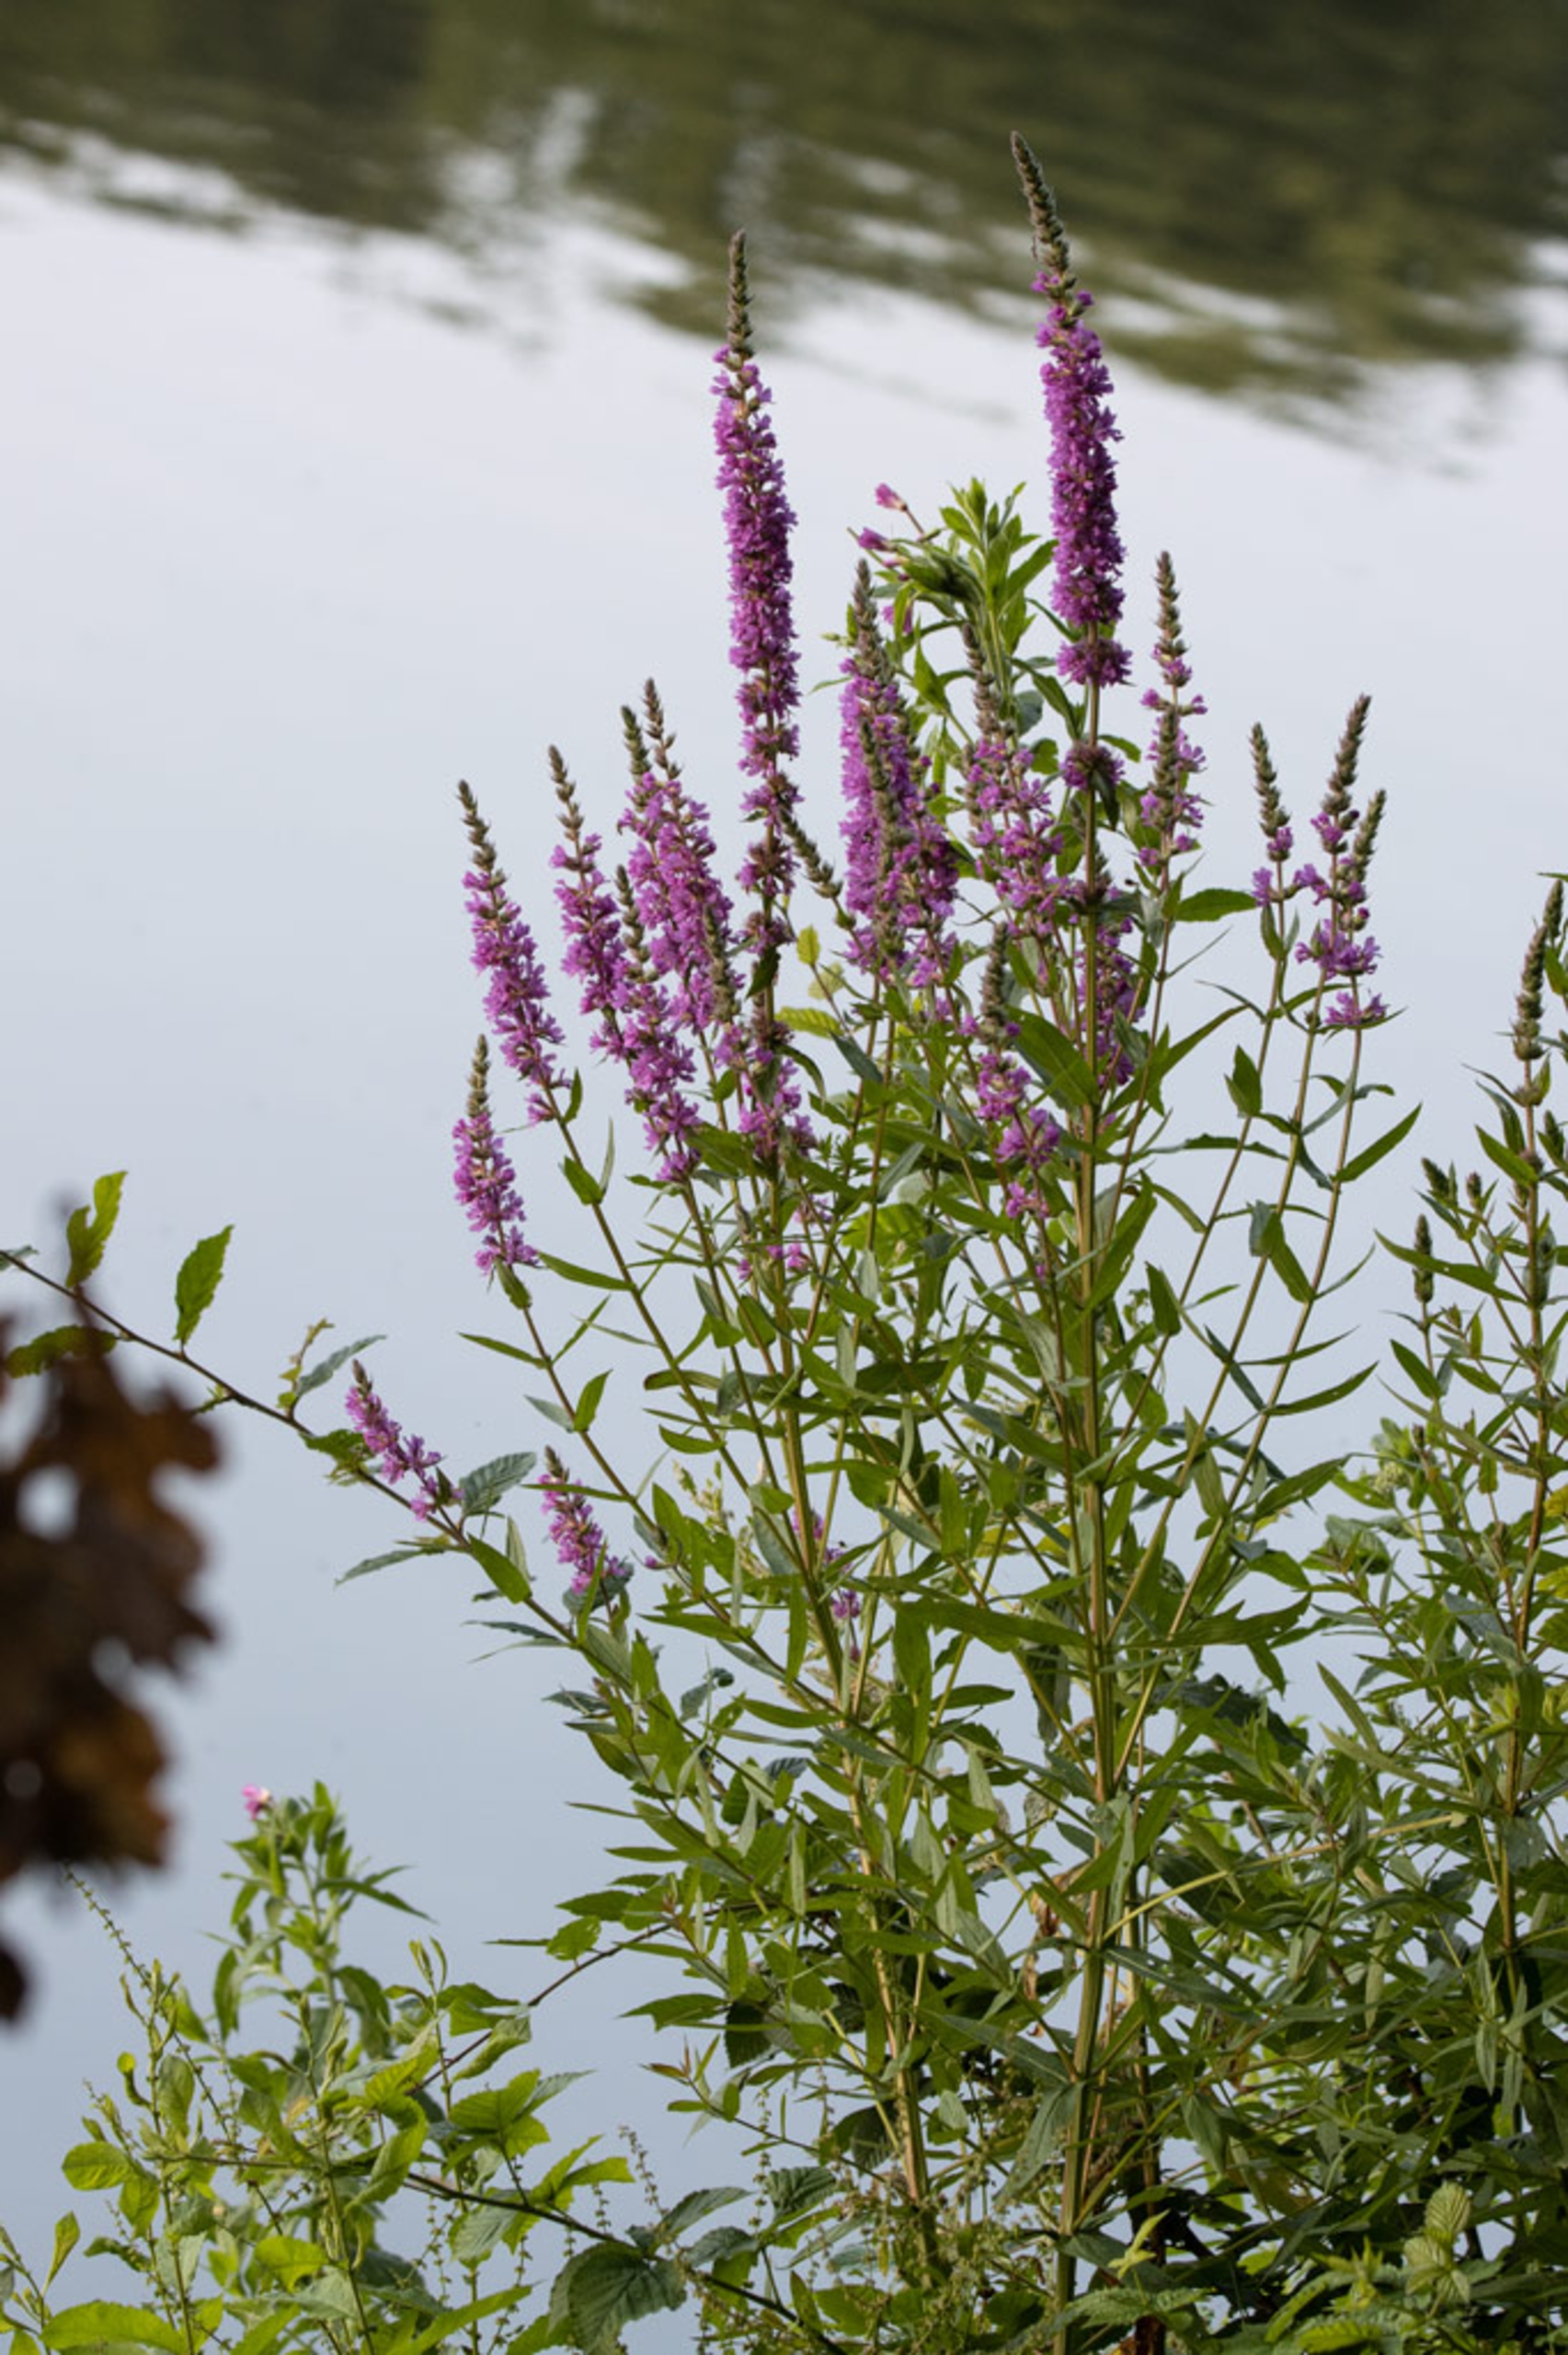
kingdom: Plantae
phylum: Tracheophyta
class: Magnoliopsida
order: Myrtales
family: Lythraceae
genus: Lythrum
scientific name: Lythrum salicaria
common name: Kattehale
